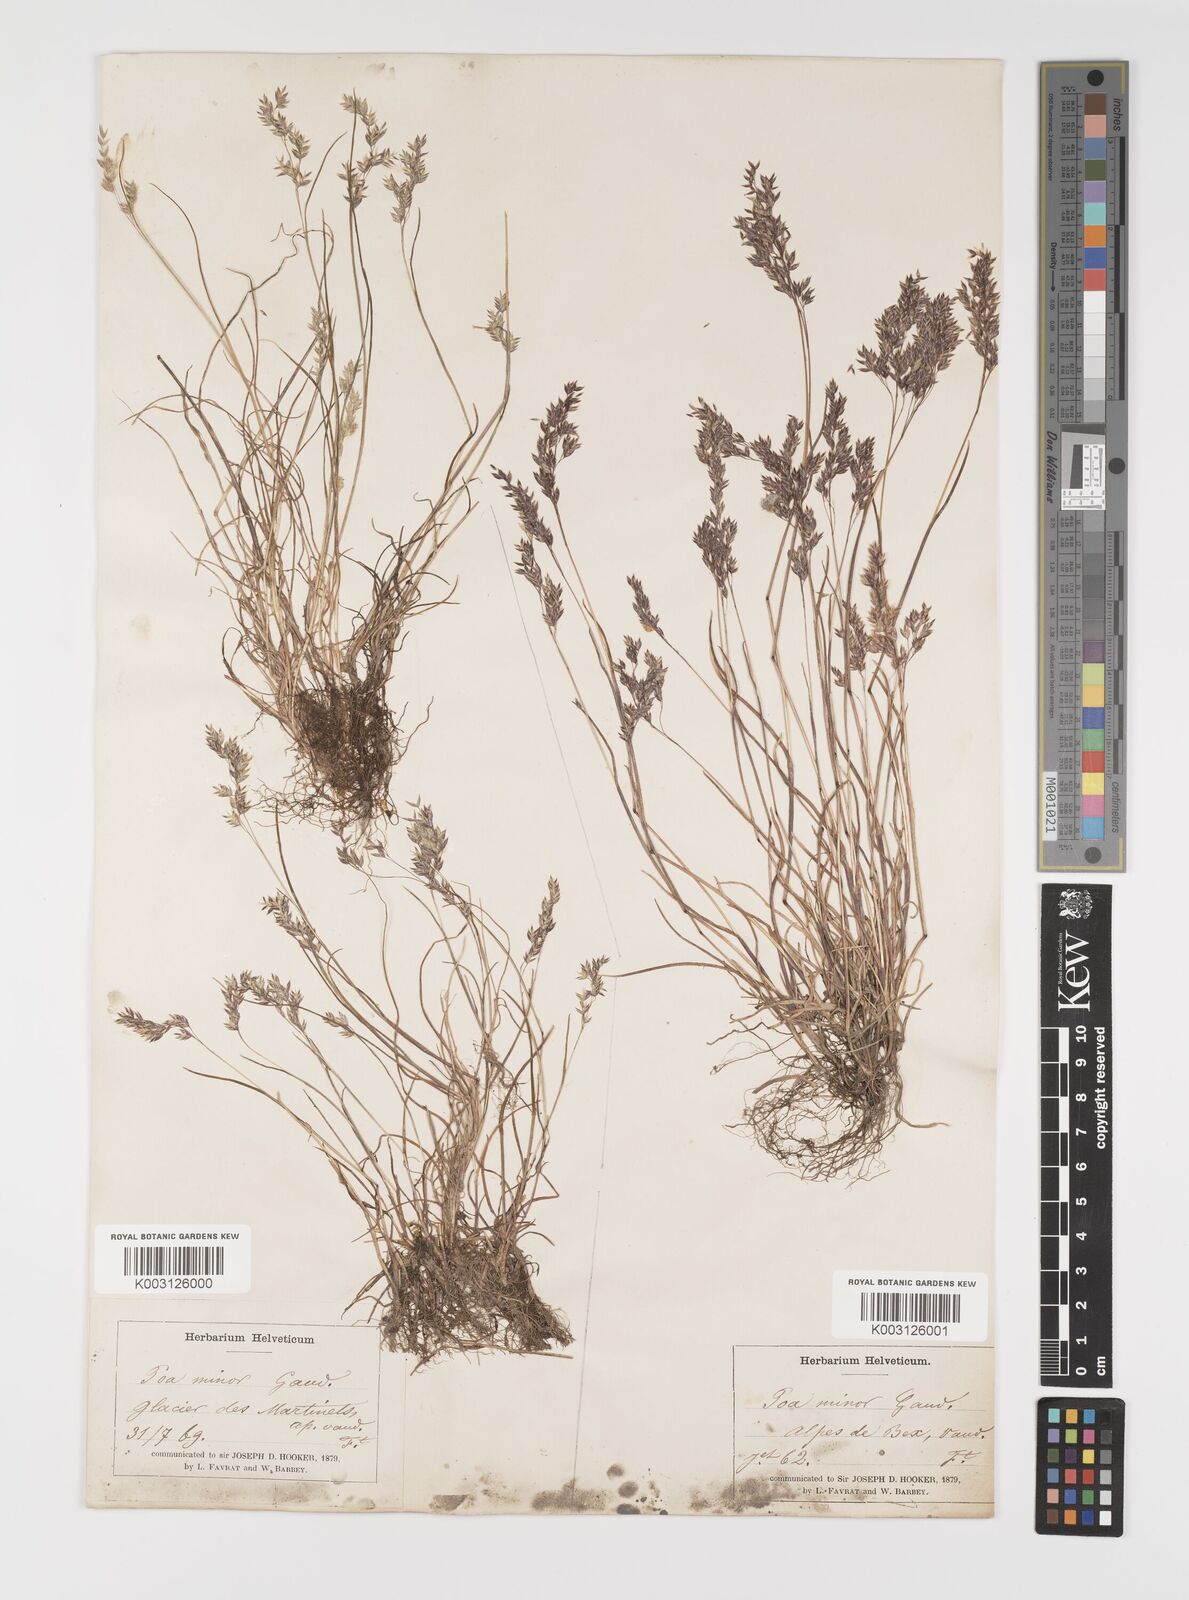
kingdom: Plantae
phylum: Tracheophyta
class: Liliopsida
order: Poales
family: Poaceae
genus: Poa
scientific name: Poa minor
